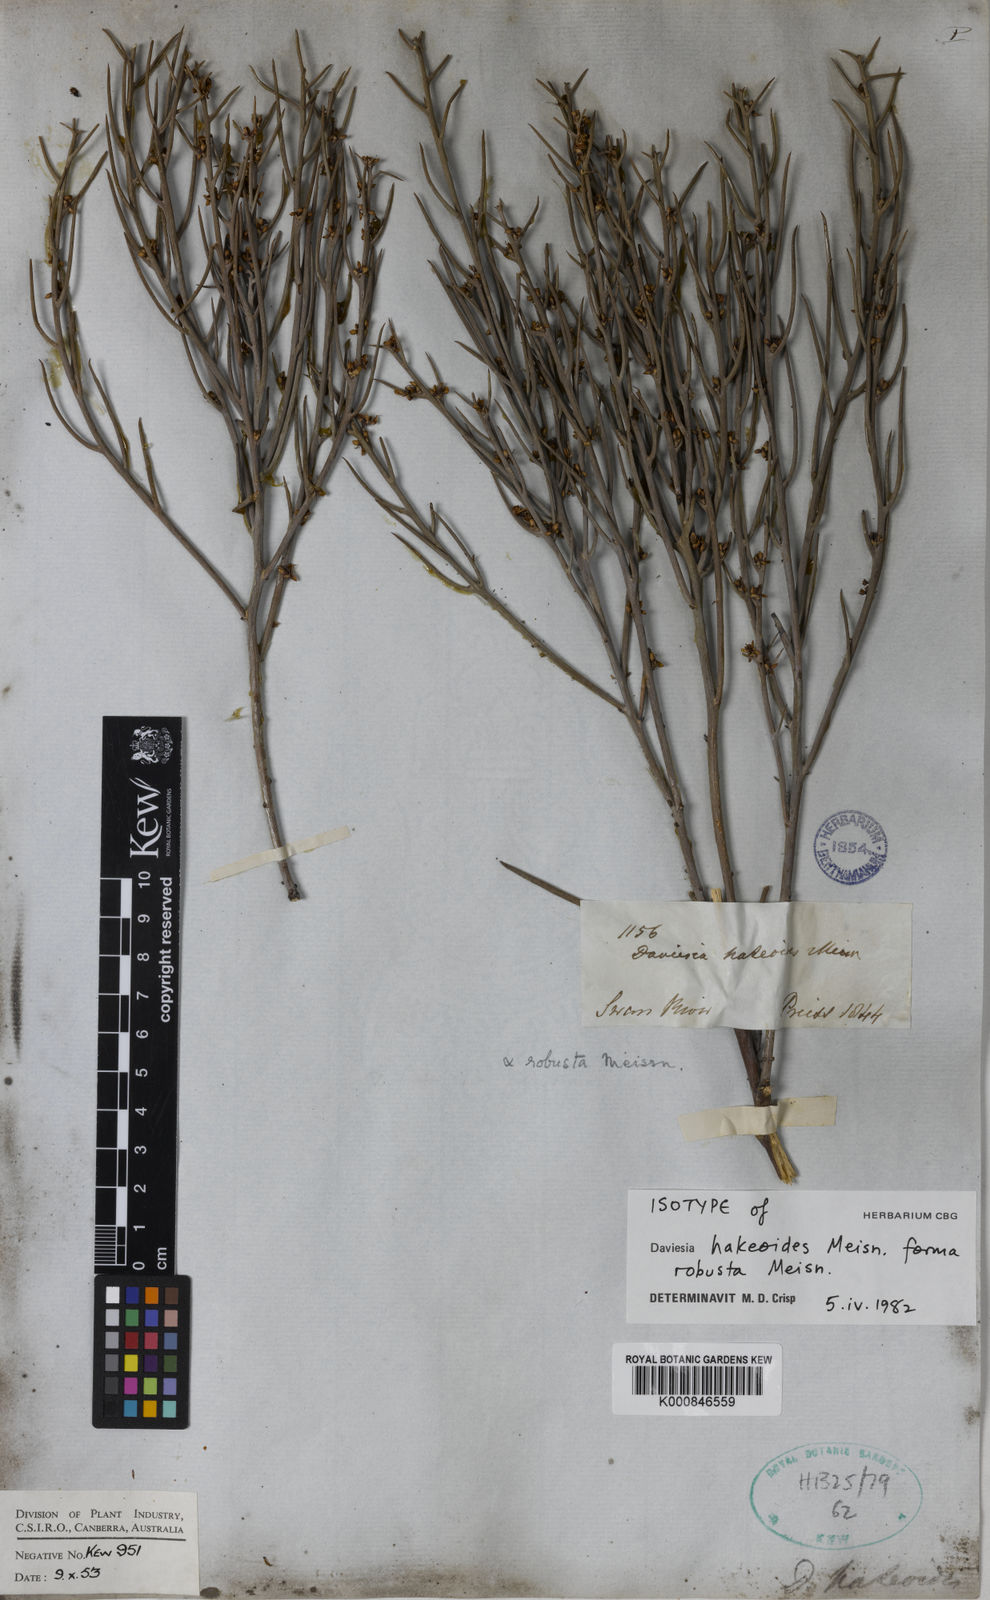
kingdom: Plantae
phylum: Tracheophyta
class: Magnoliopsida
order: Fabales
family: Fabaceae
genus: Daviesia
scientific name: Daviesia hakeoides
